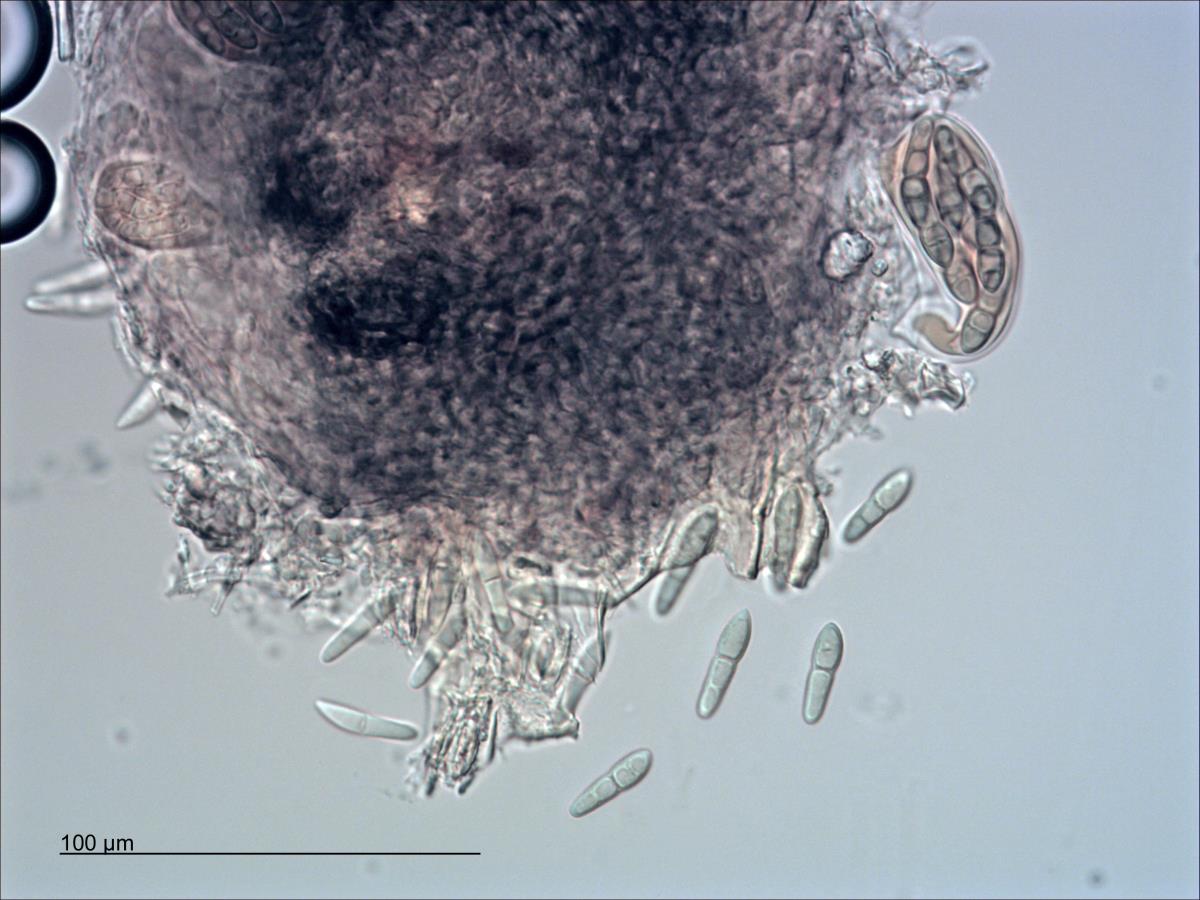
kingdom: Fungi
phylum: Ascomycota
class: Dothideomycetes
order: Pleosporales
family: Phaeosphaeriaceae
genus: Phaeosphaeria
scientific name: Phaeosphaeria eustoma
